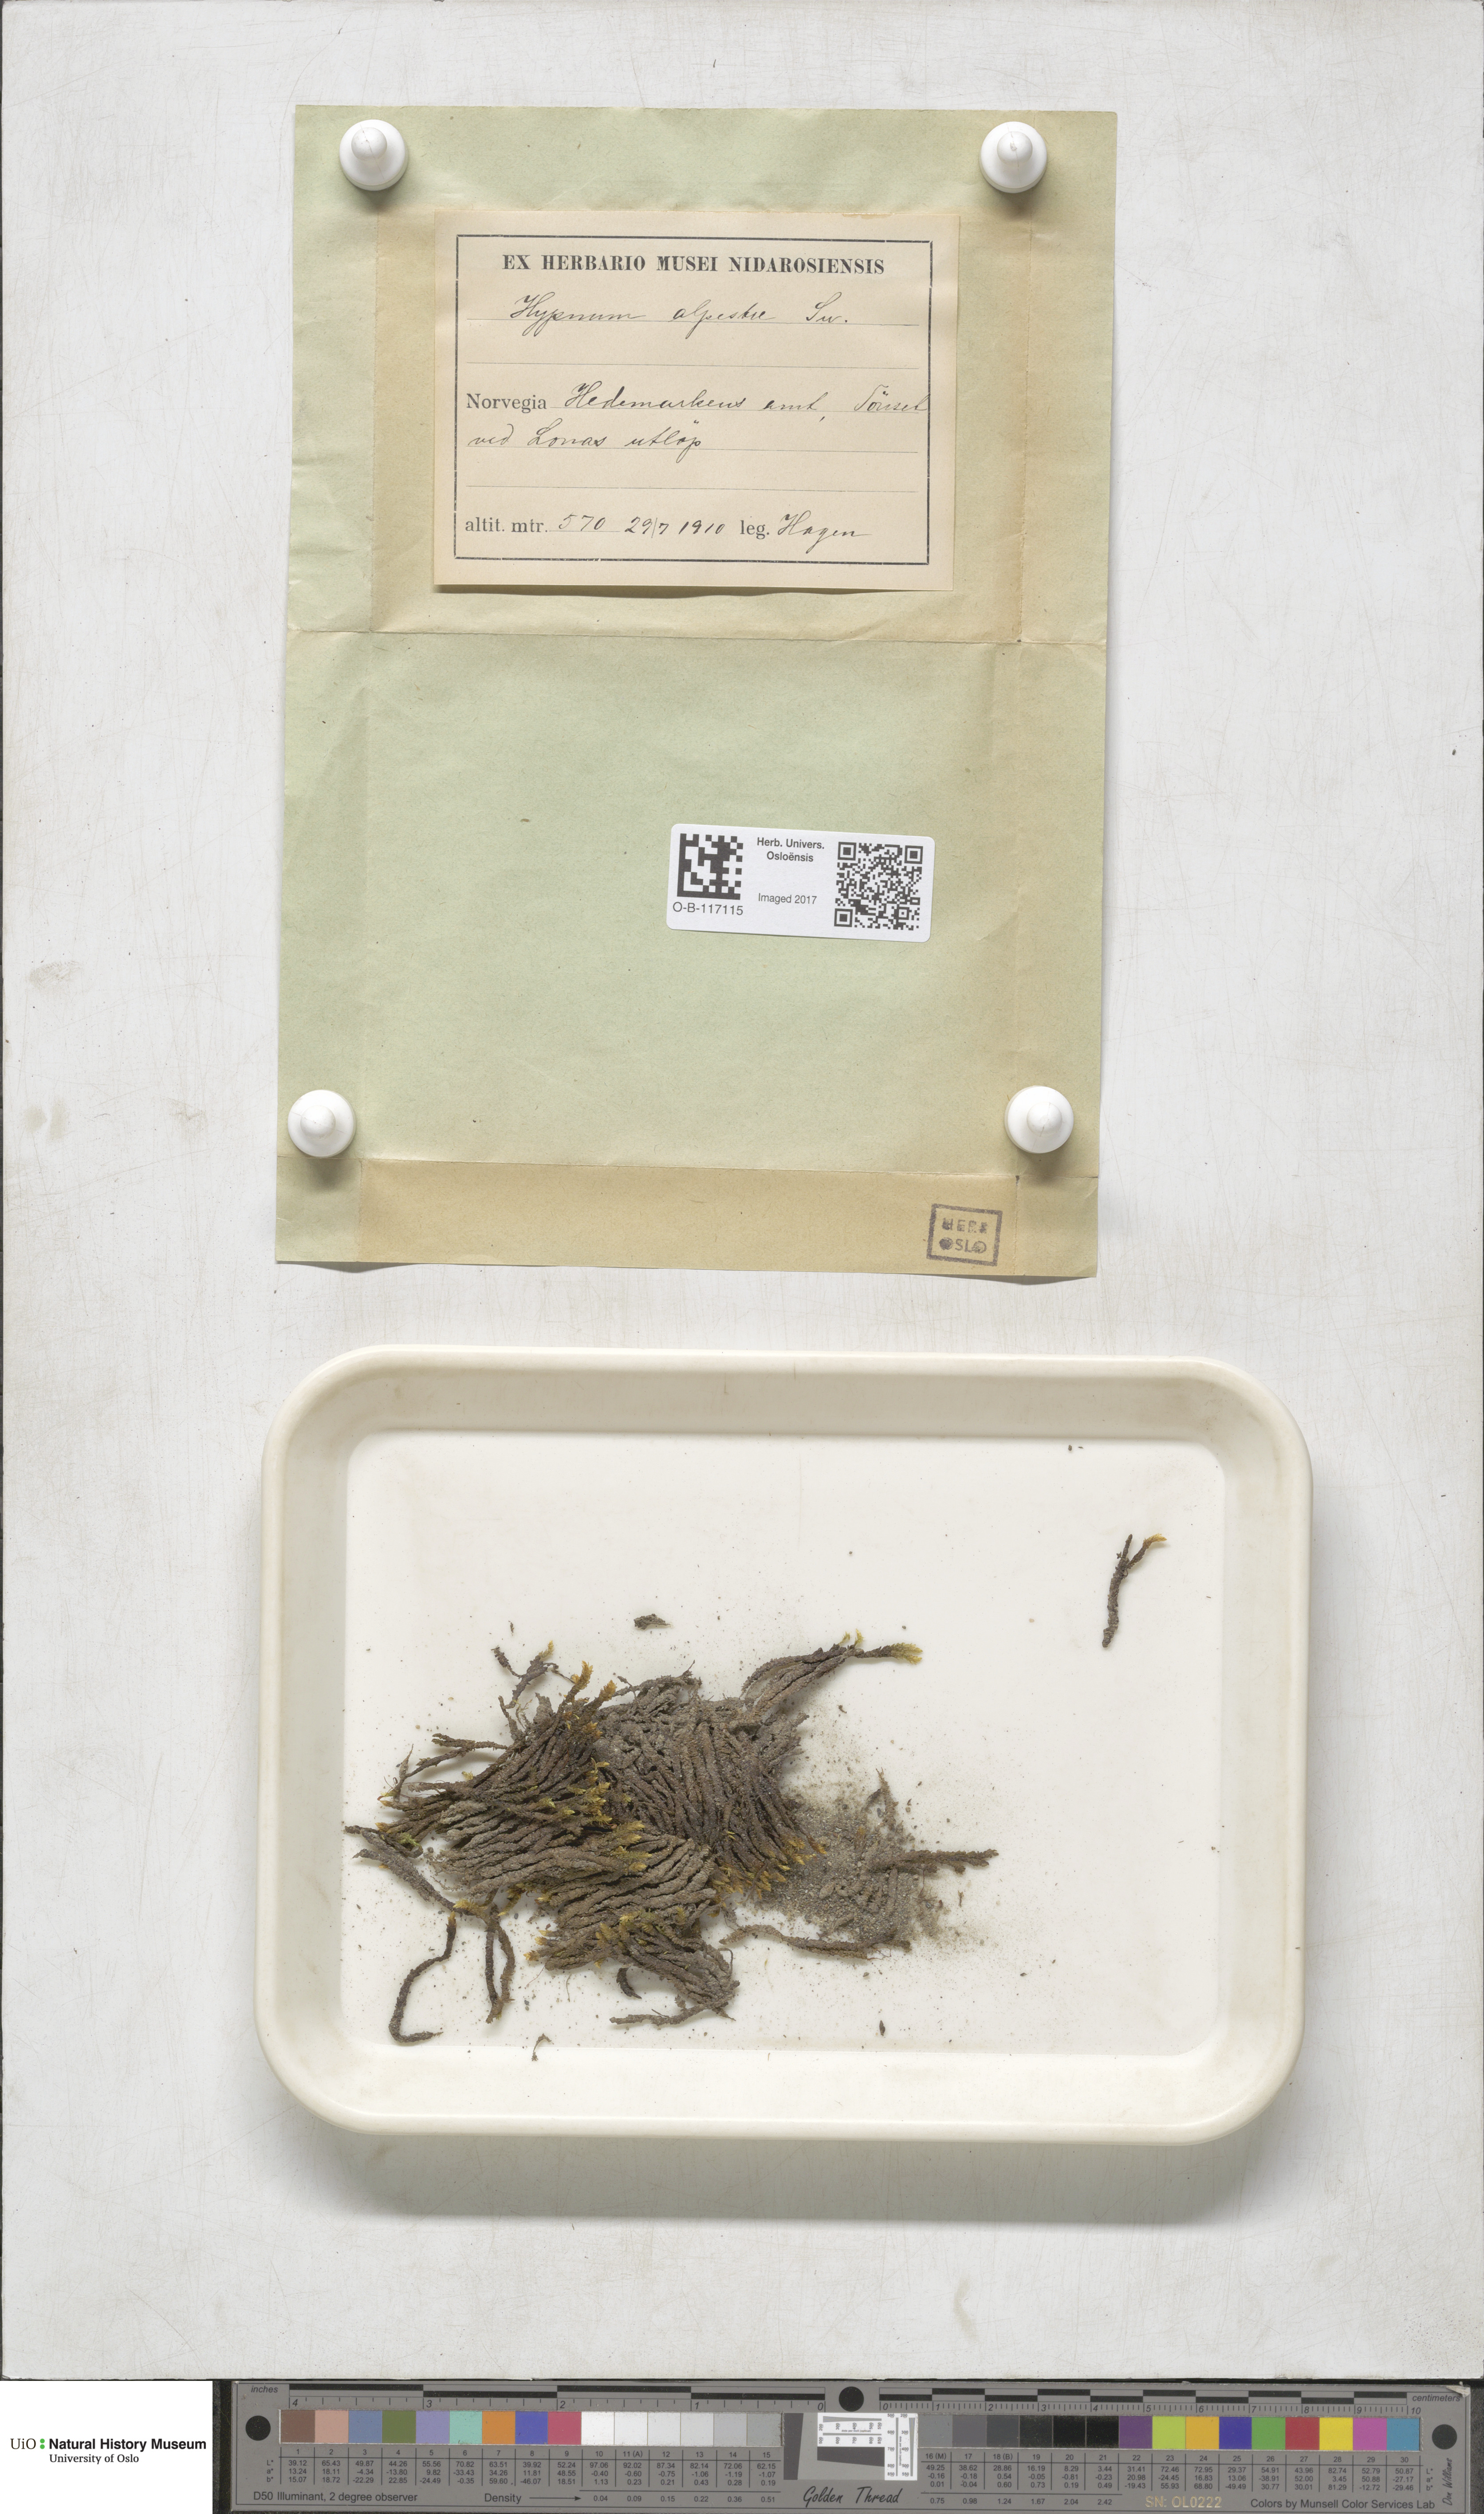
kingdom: Plantae
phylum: Bryophyta
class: Bryopsida
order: Hypnales
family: Amblystegiaceae
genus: Platyhypnum
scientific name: Platyhypnum alpestre
